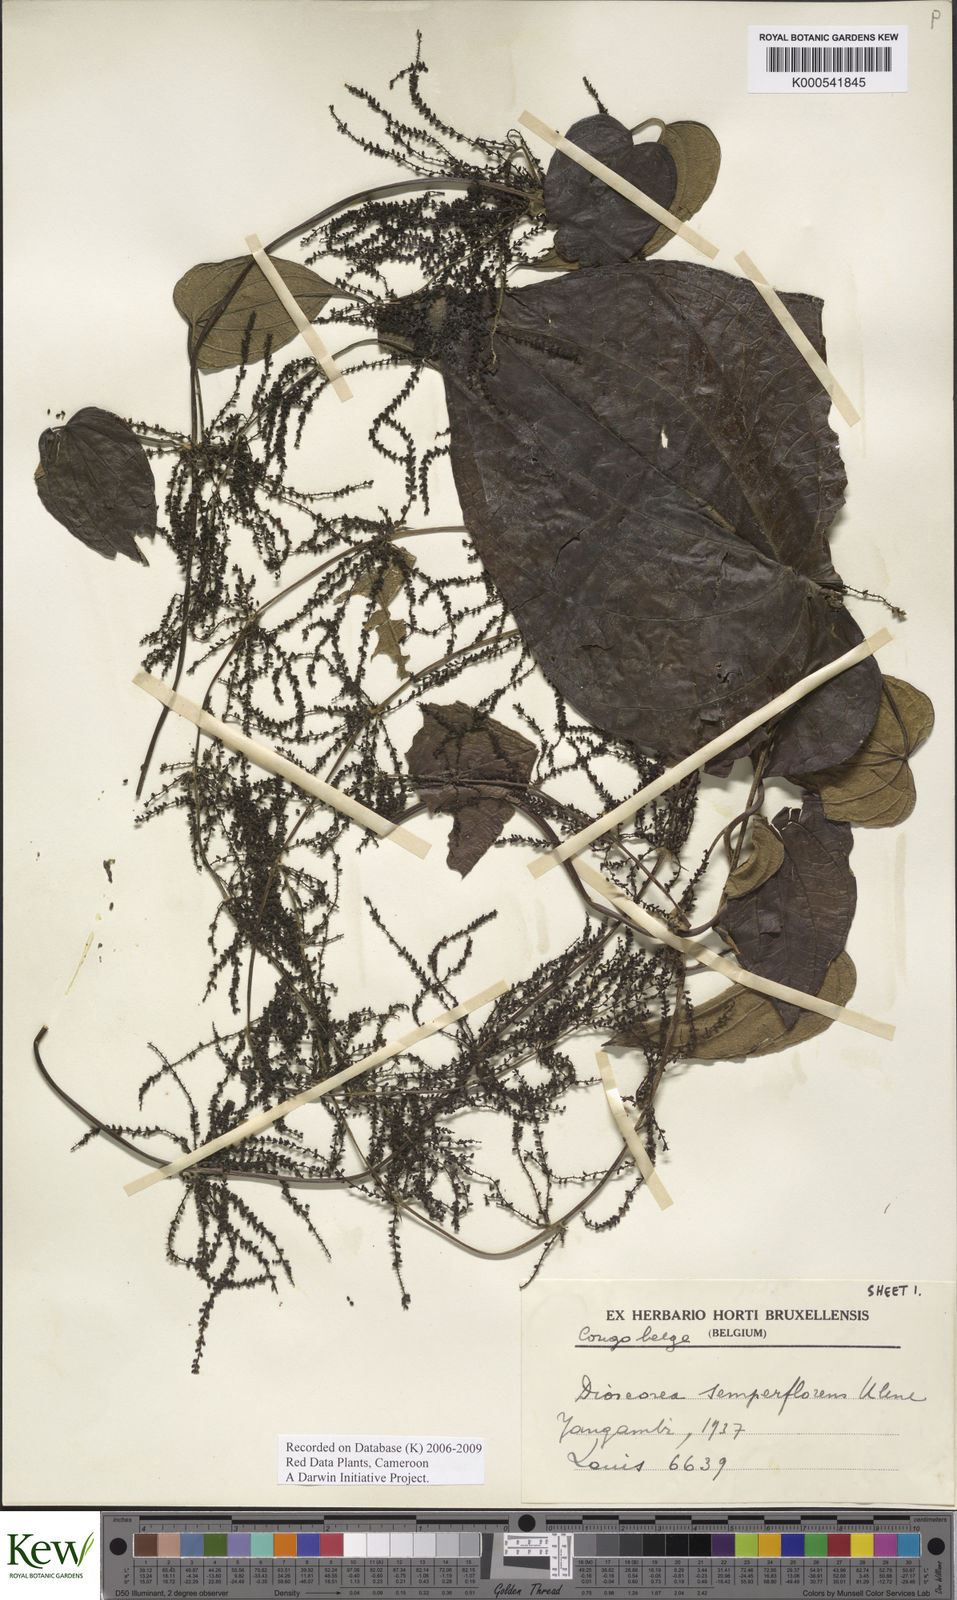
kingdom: Plantae
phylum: Tracheophyta
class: Liliopsida
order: Dioscoreales
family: Dioscoreaceae
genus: Dioscorea
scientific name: Dioscorea semperflorens
